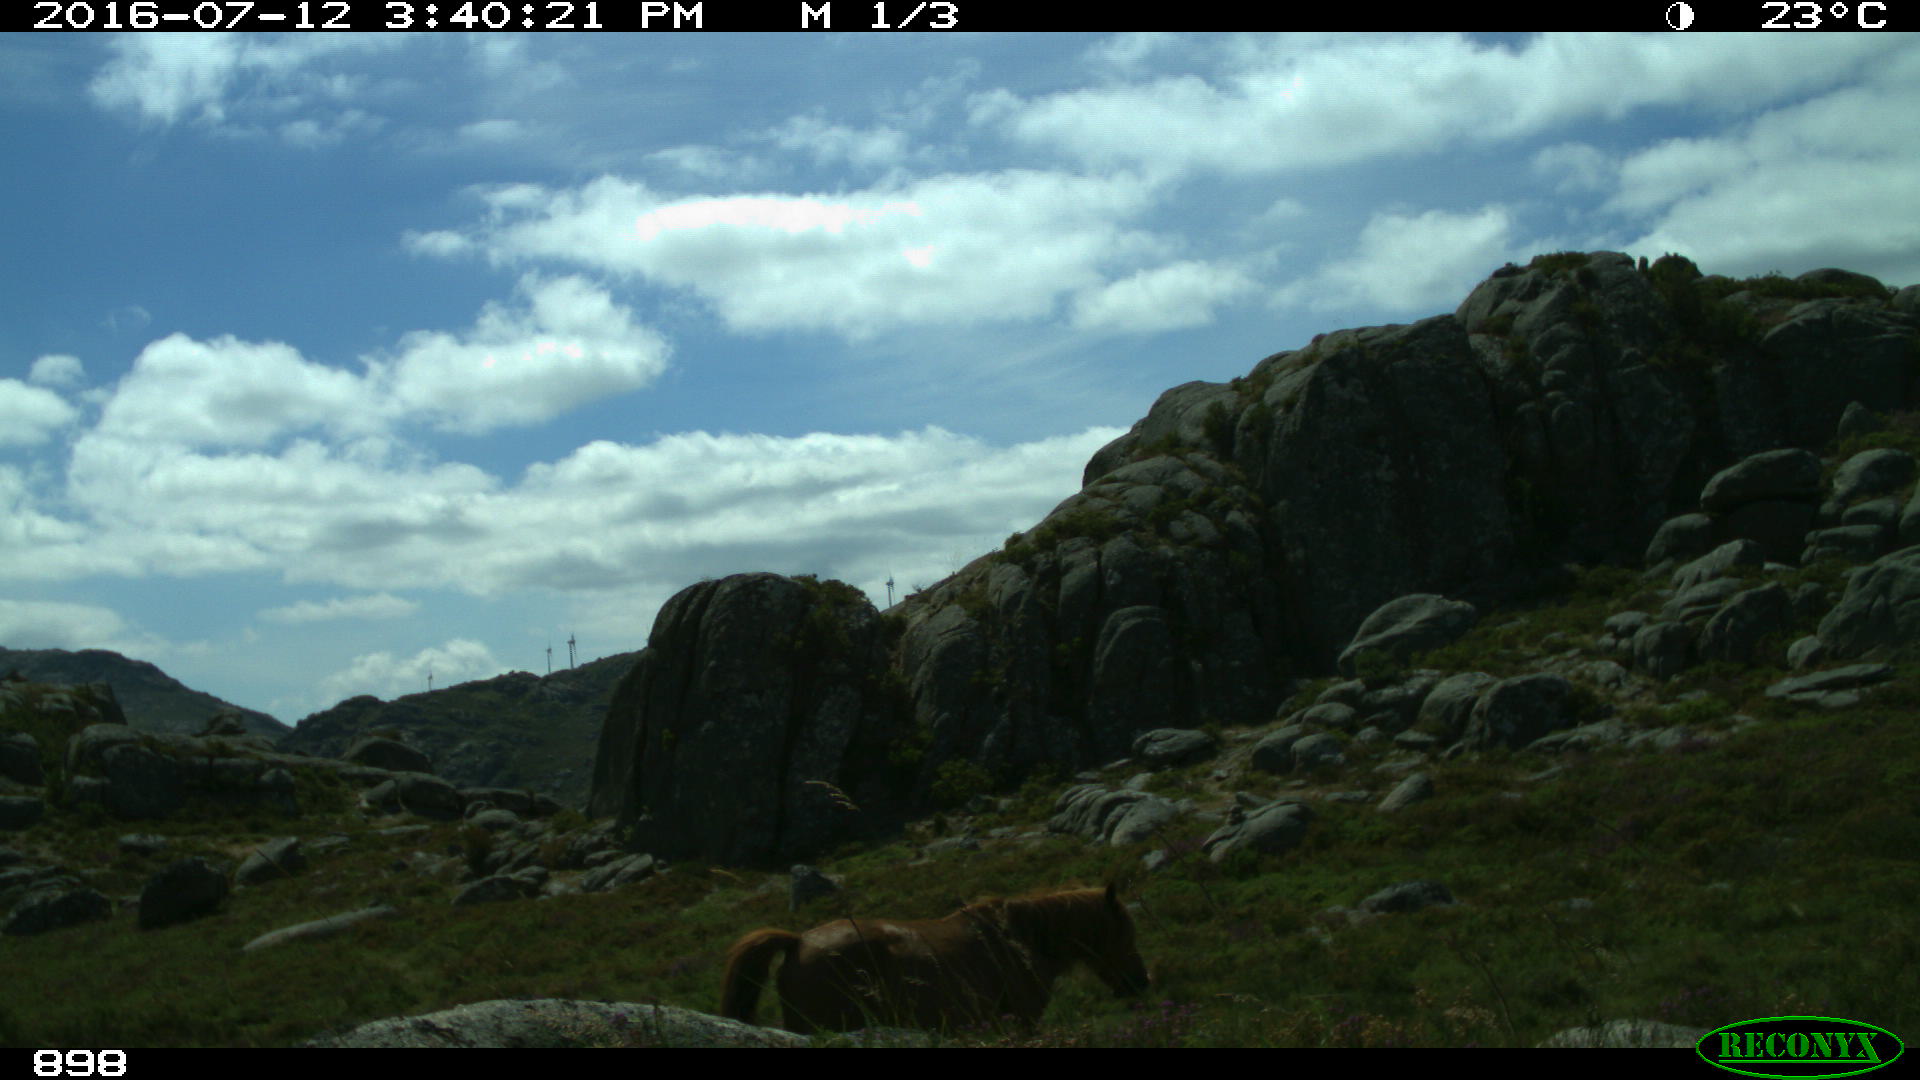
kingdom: Animalia
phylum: Chordata
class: Mammalia
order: Perissodactyla
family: Equidae
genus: Equus
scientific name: Equus caballus
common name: Horse
